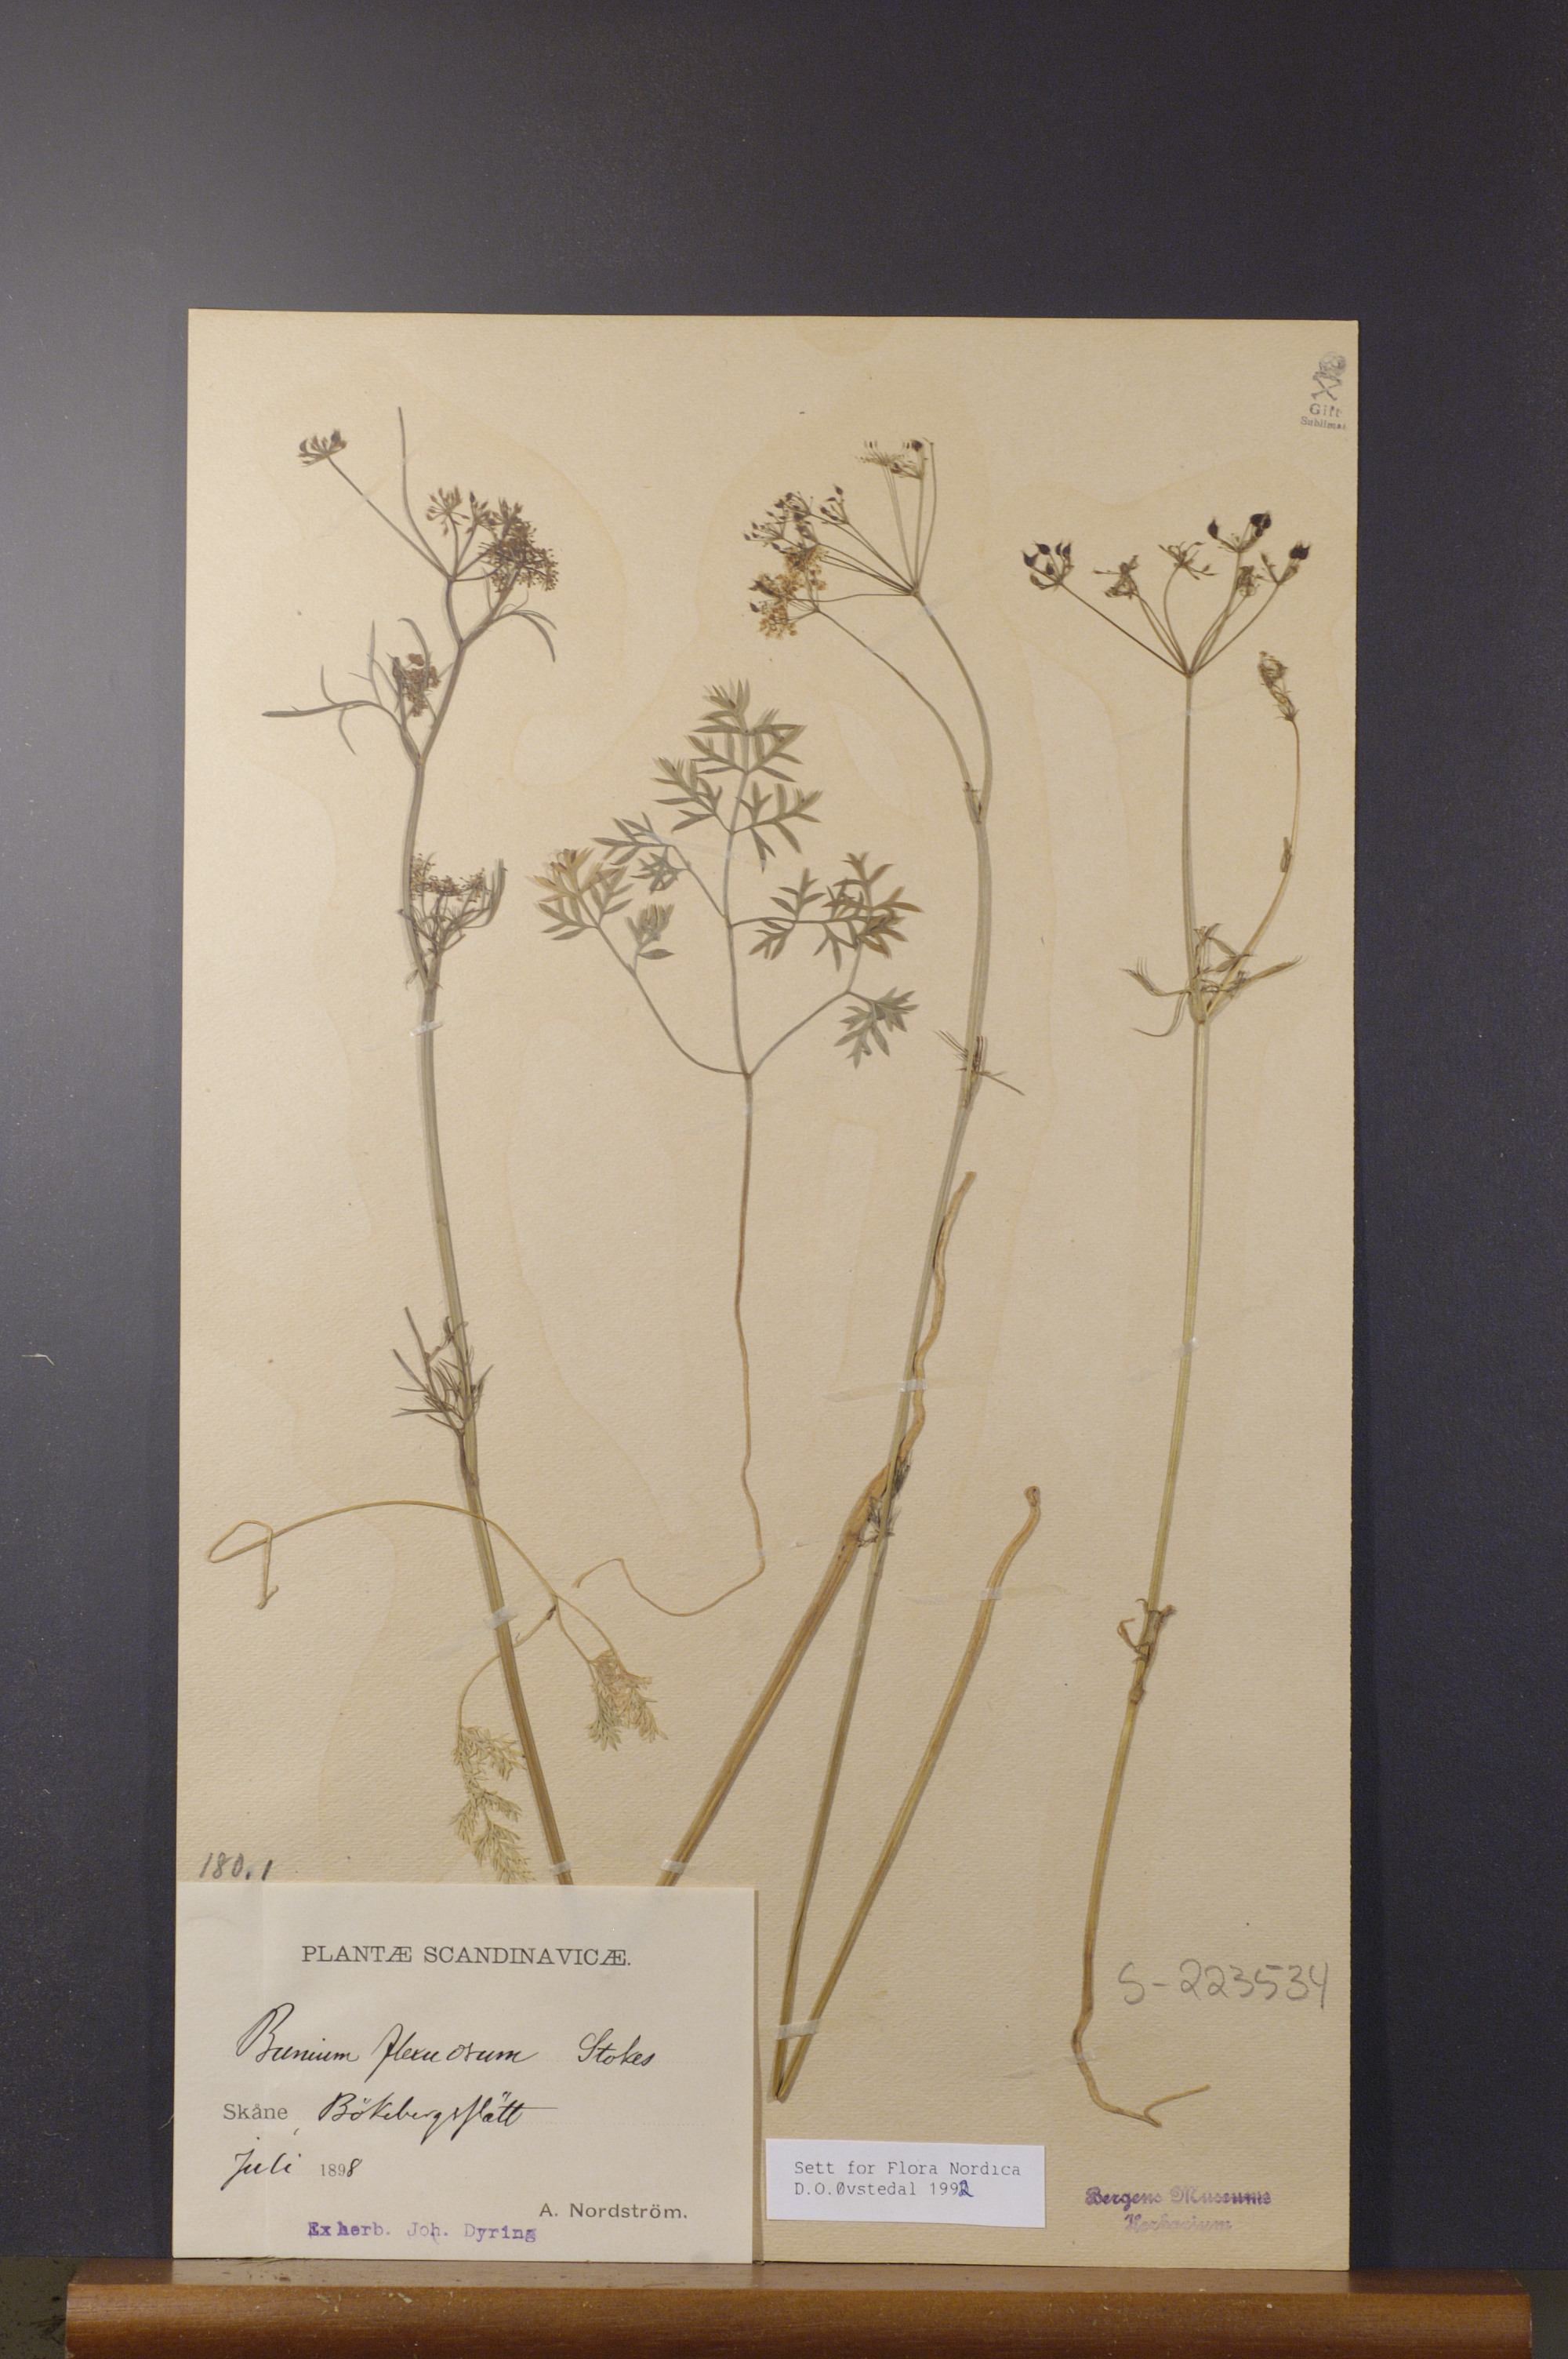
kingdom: Plantae
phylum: Tracheophyta
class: Magnoliopsida
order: Apiales
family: Apiaceae
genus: Conopodium
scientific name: Conopodium majus
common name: Pignut
